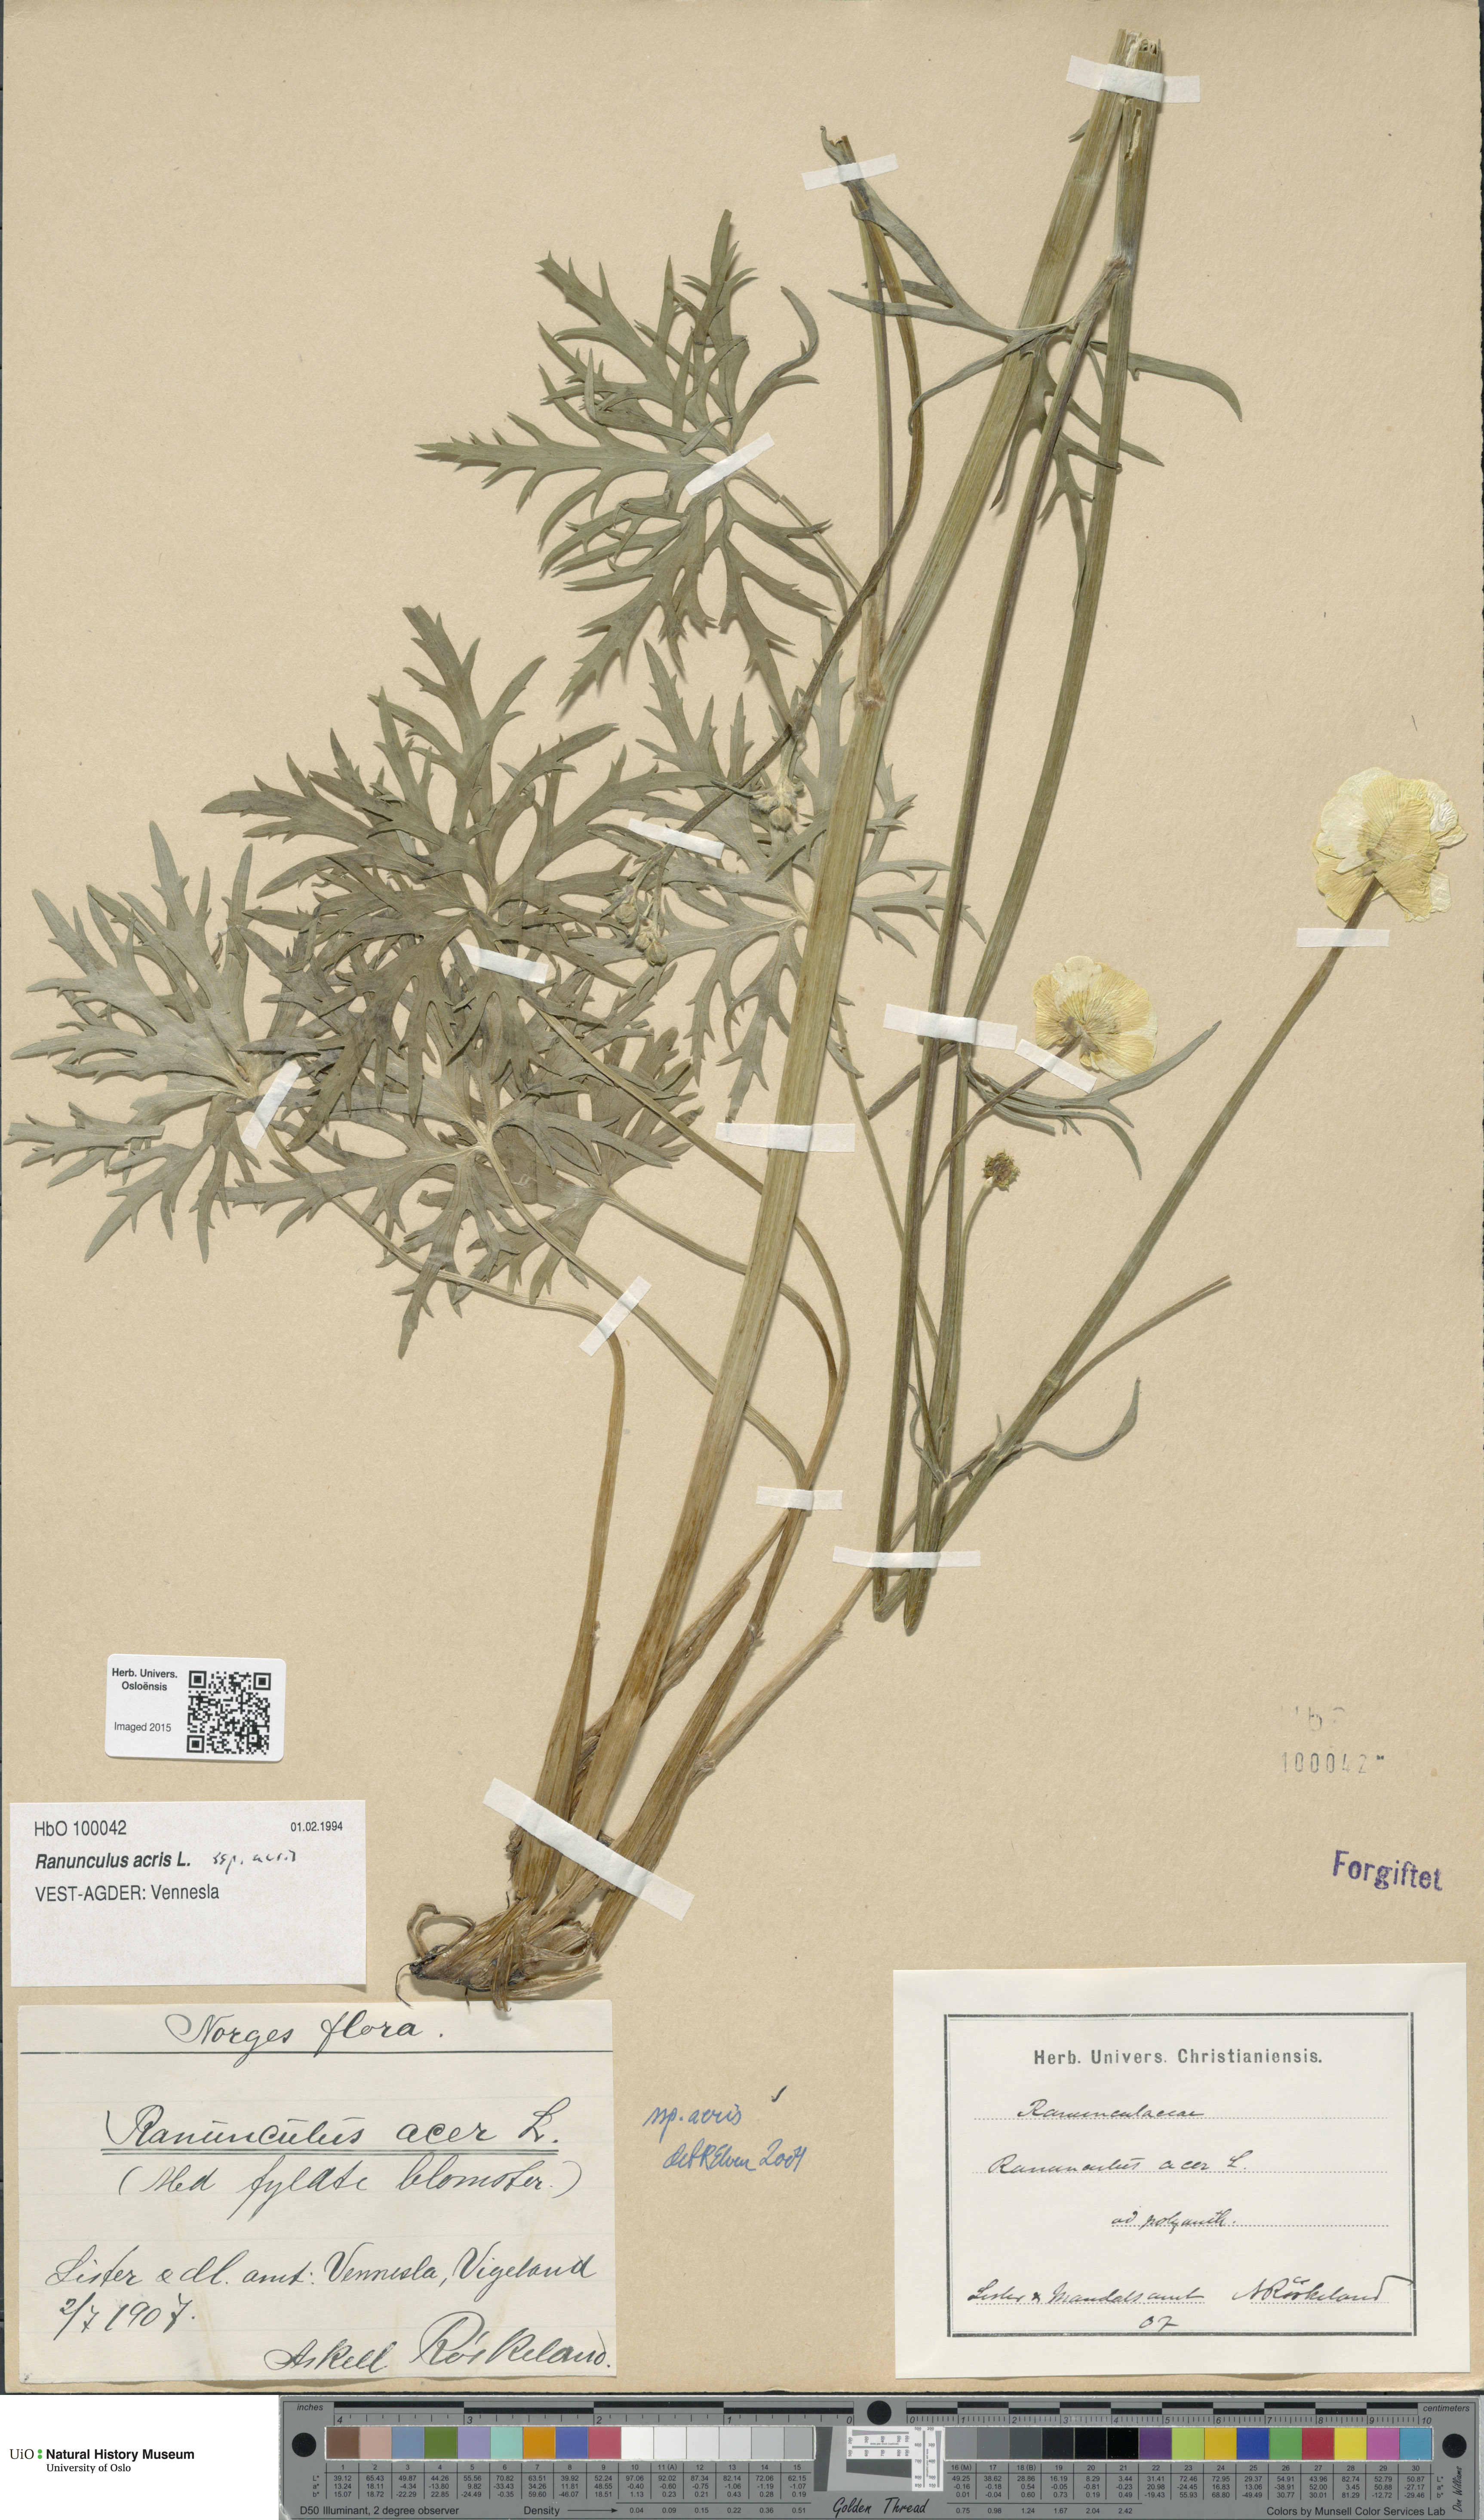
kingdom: Plantae
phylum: Tracheophyta
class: Magnoliopsida
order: Ranunculales
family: Ranunculaceae
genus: Ranunculus
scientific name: Ranunculus acris
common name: Meadow buttercup
